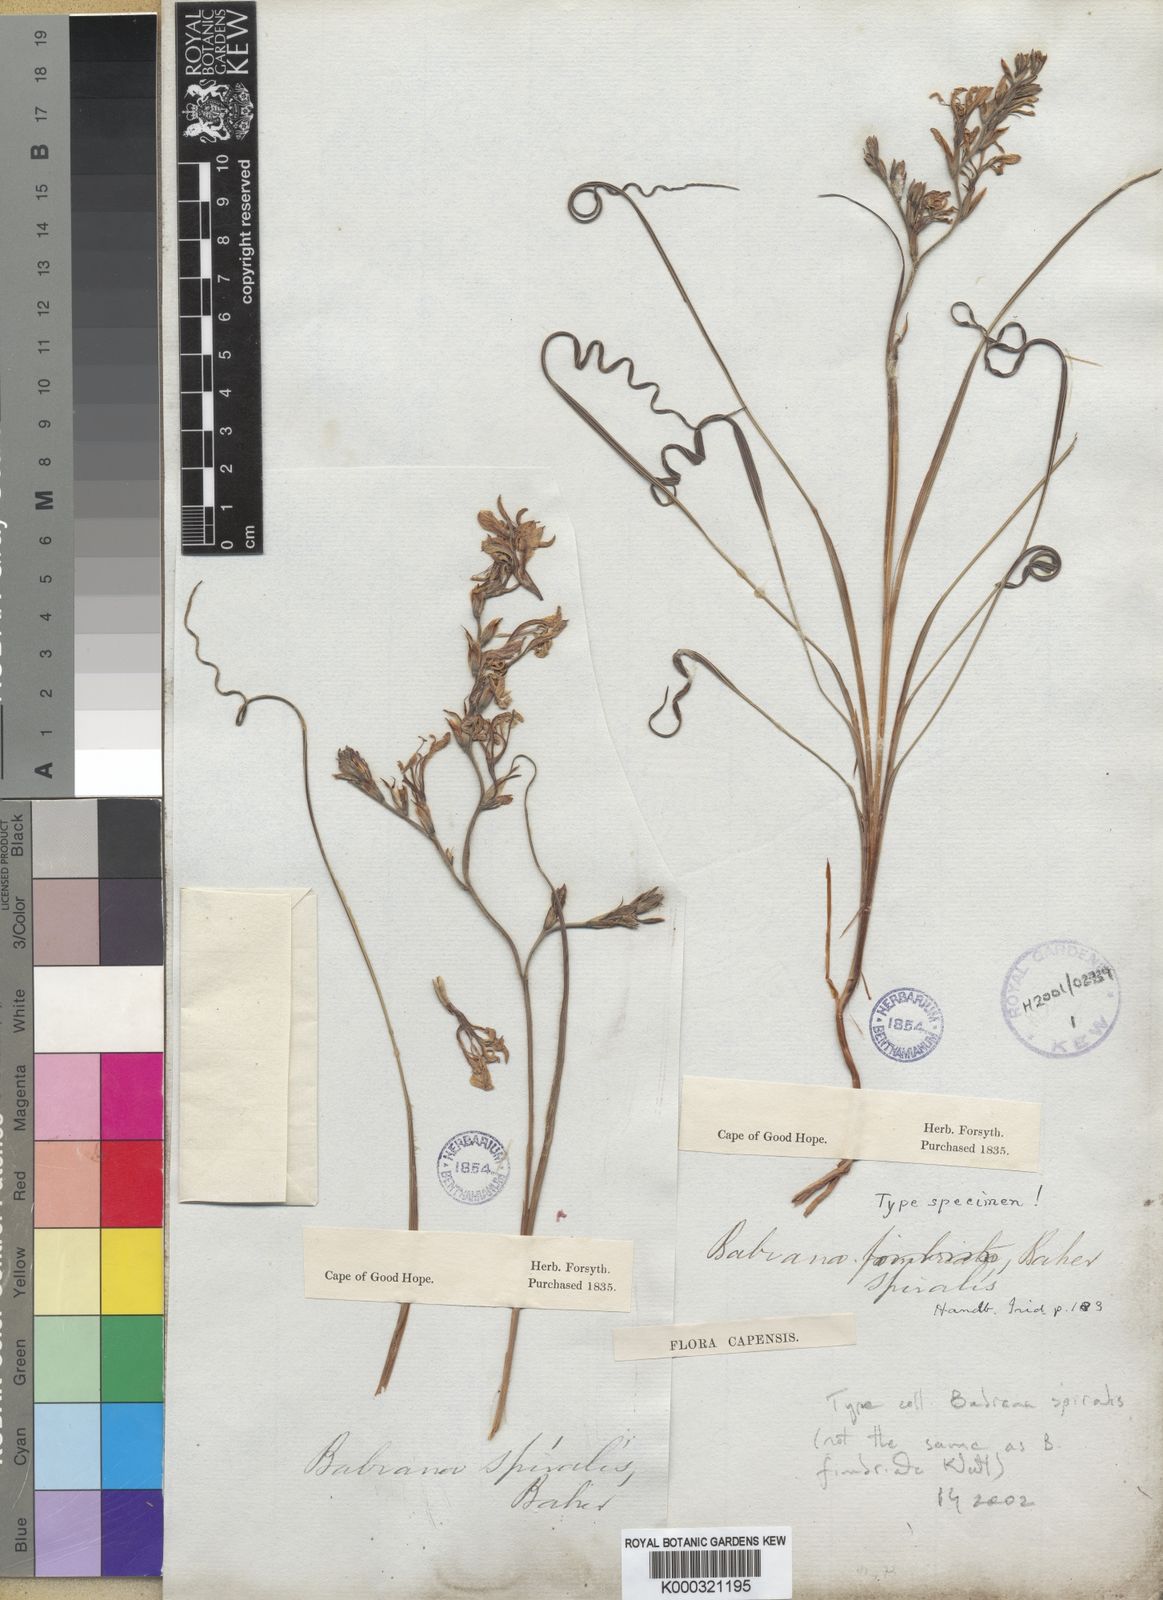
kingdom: Plantae
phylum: Tracheophyta
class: Liliopsida
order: Asparagales
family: Iridaceae
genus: Babiana
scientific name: Babiana spiralis
